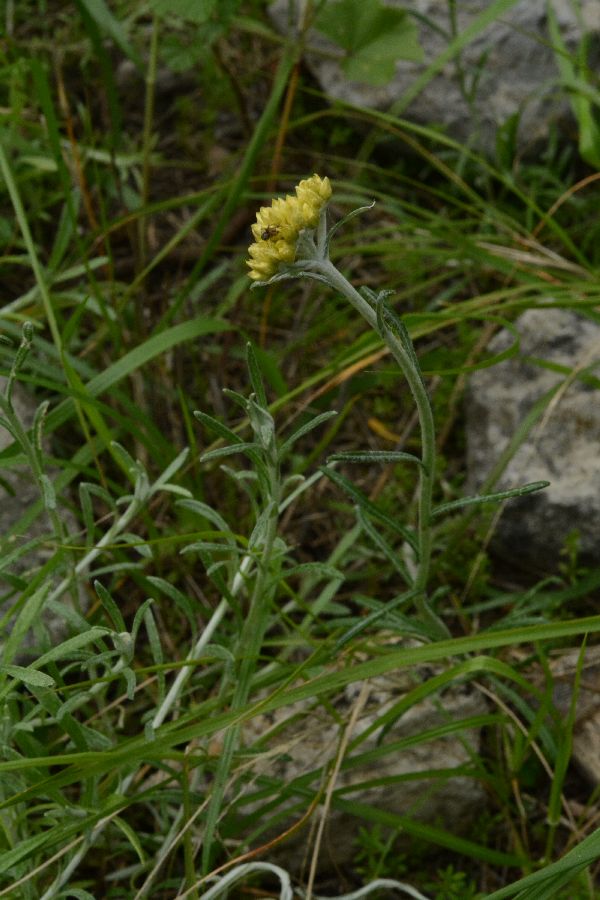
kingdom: Plantae
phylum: Tracheophyta
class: Magnoliopsida
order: Asterales
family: Asteraceae
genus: Helichrysum
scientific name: Helichrysum stoechas
